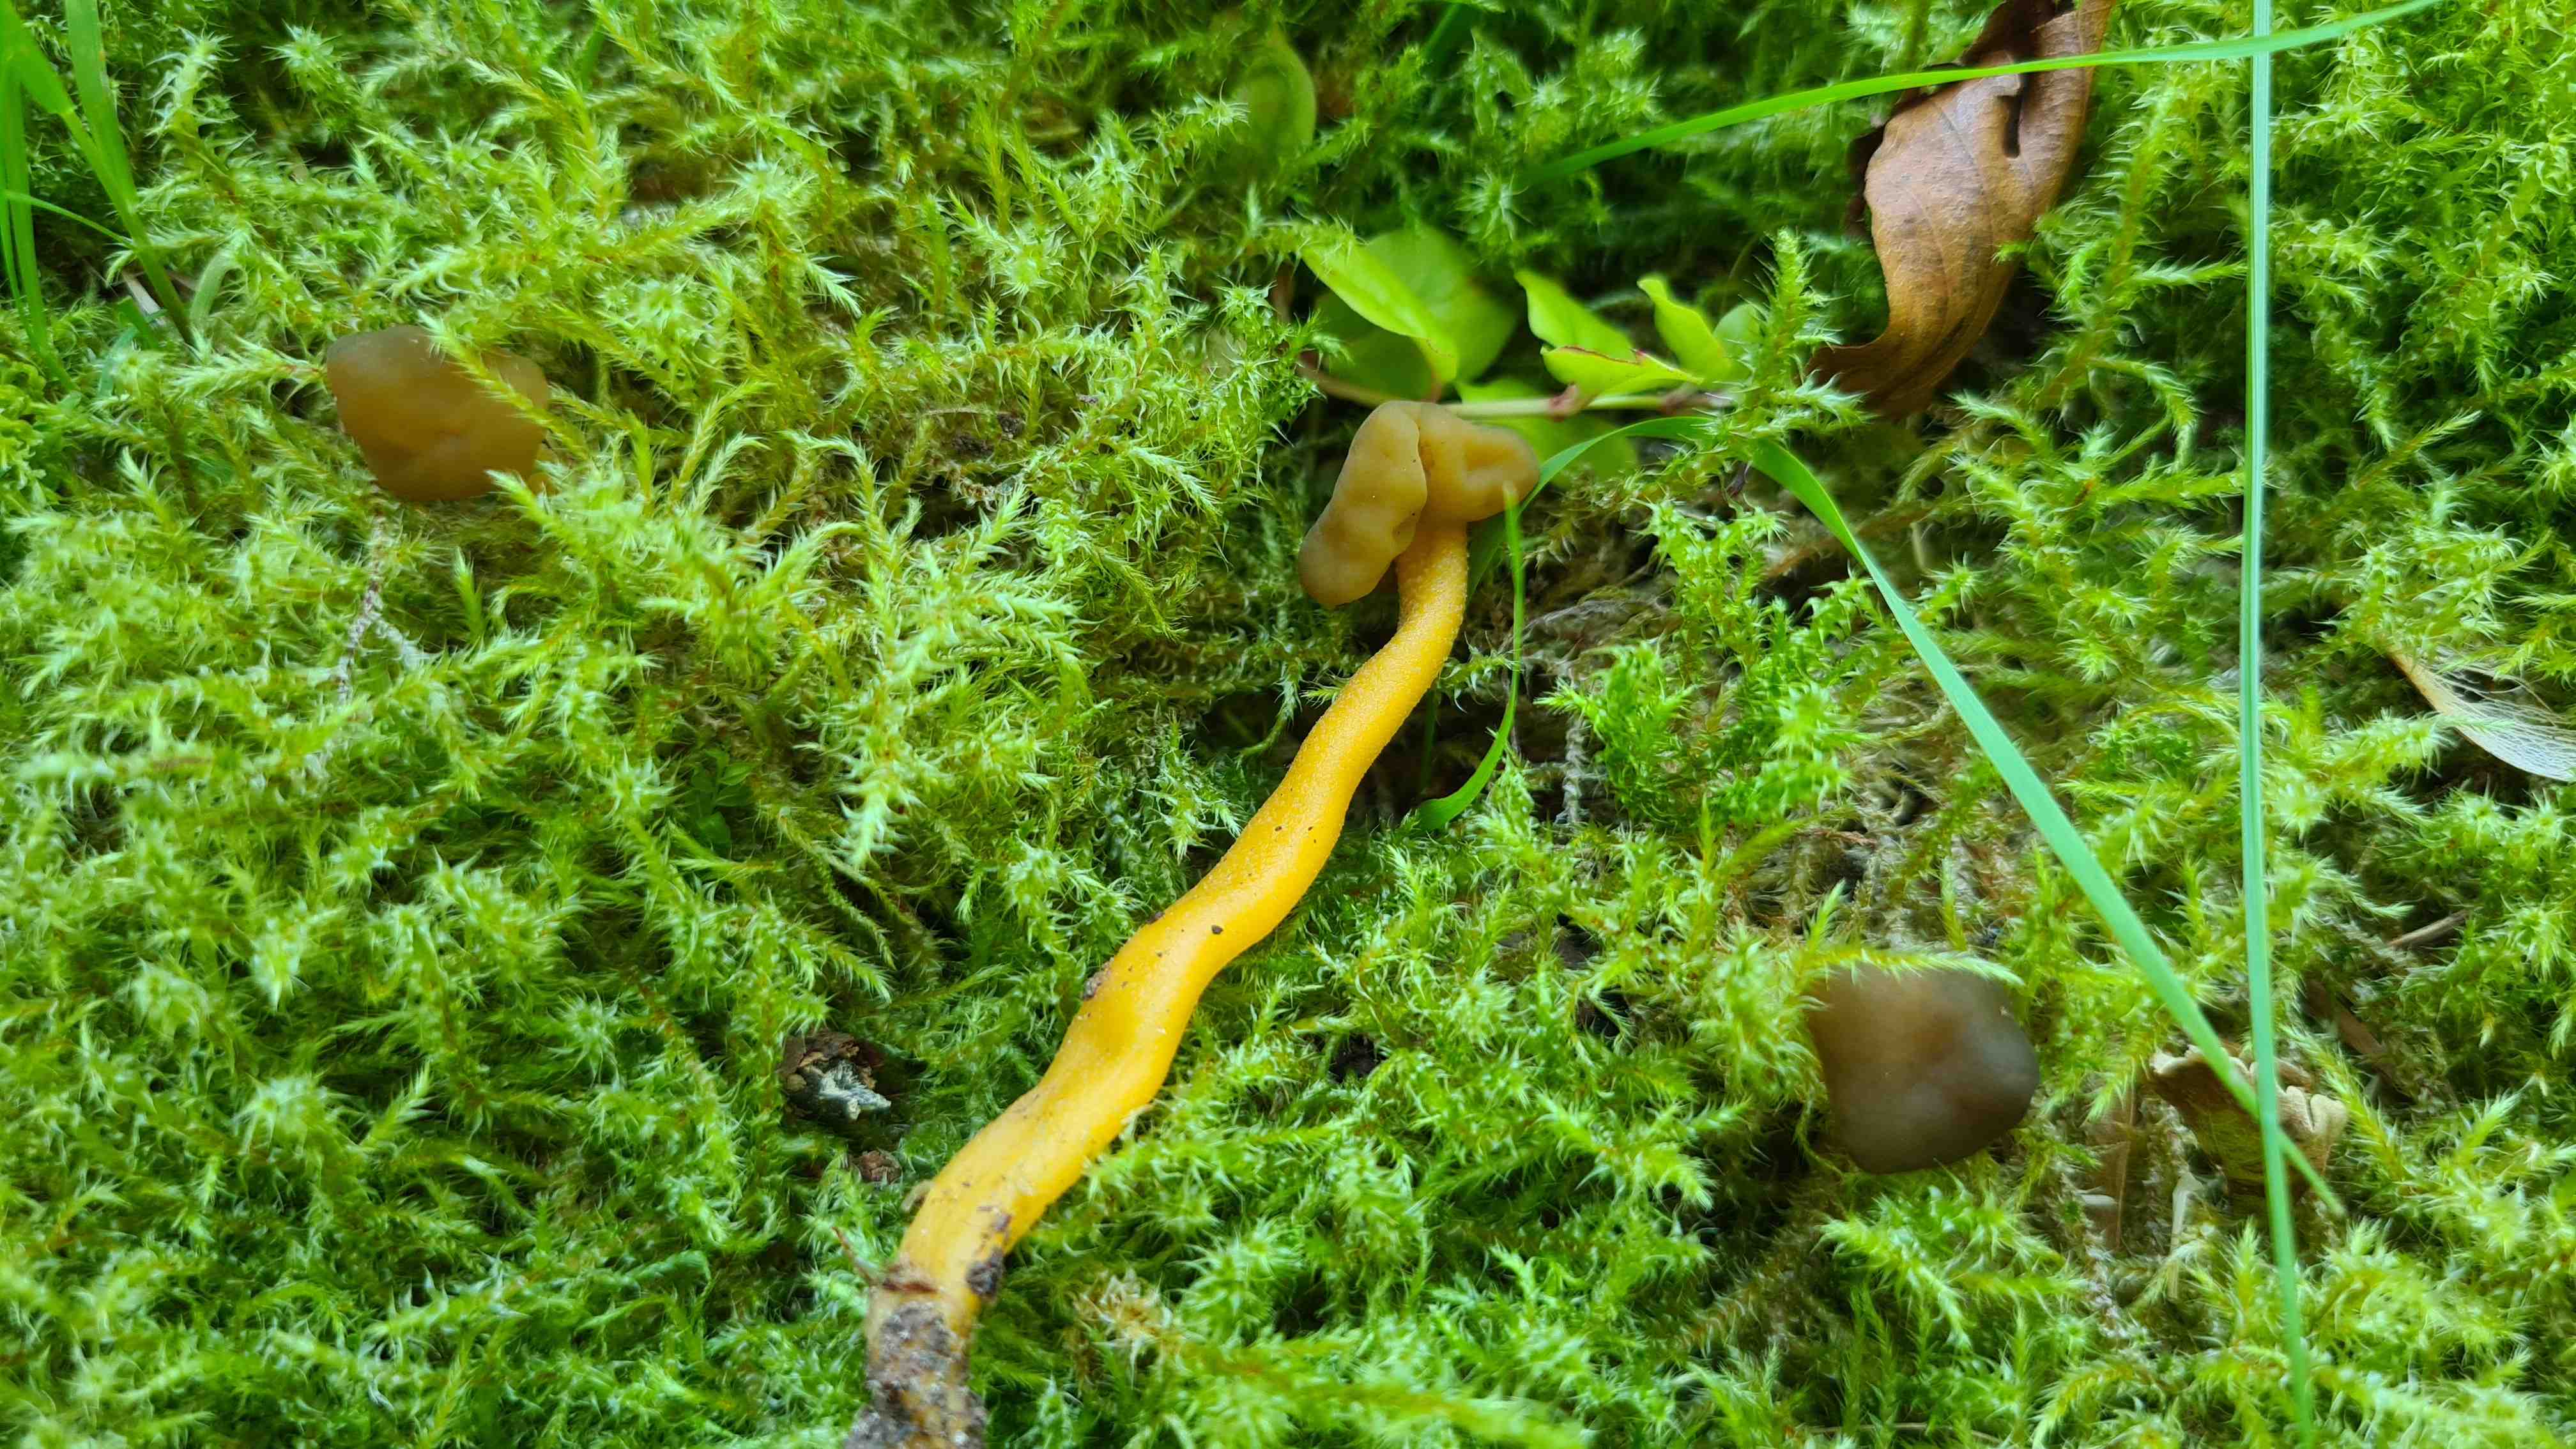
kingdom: Fungi
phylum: Ascomycota
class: Leotiomycetes
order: Leotiales
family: Leotiaceae
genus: Leotia
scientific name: Leotia lubrica
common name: ravsvamp
